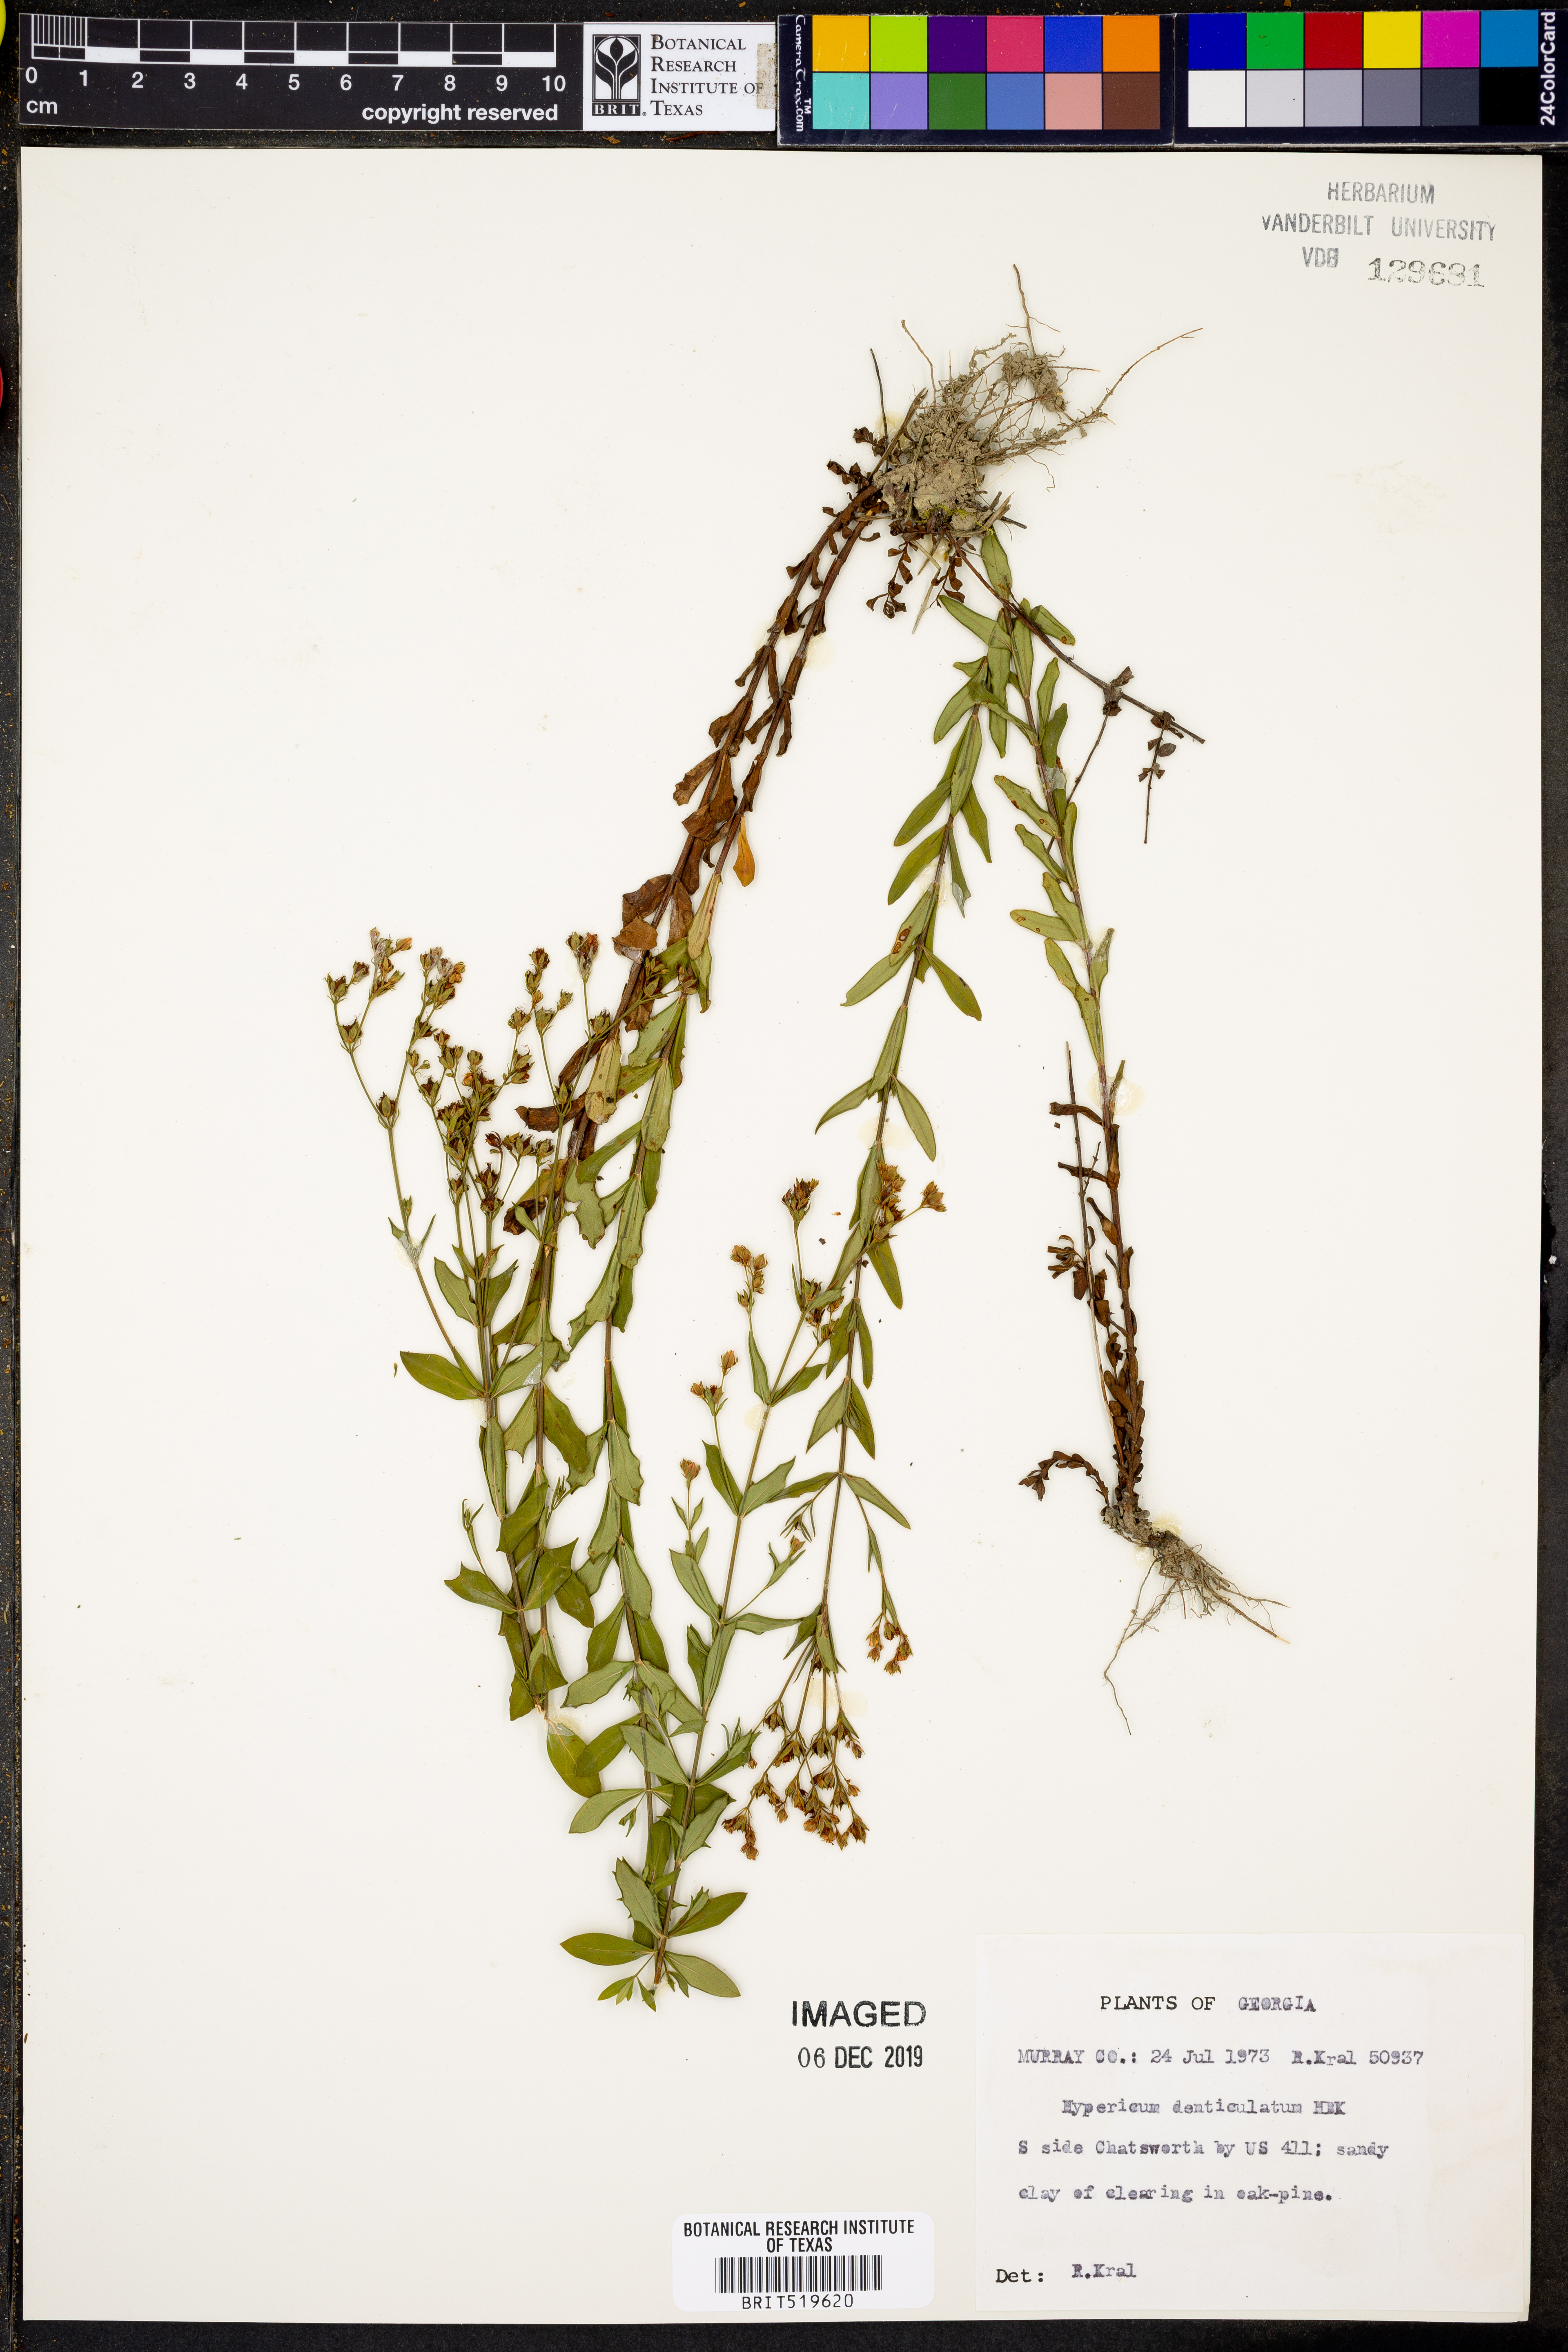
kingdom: Plantae
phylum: Tracheophyta
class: Magnoliopsida
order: Malpighiales
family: Hypericaceae
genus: Hypericum
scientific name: Hypericum denticulatum
